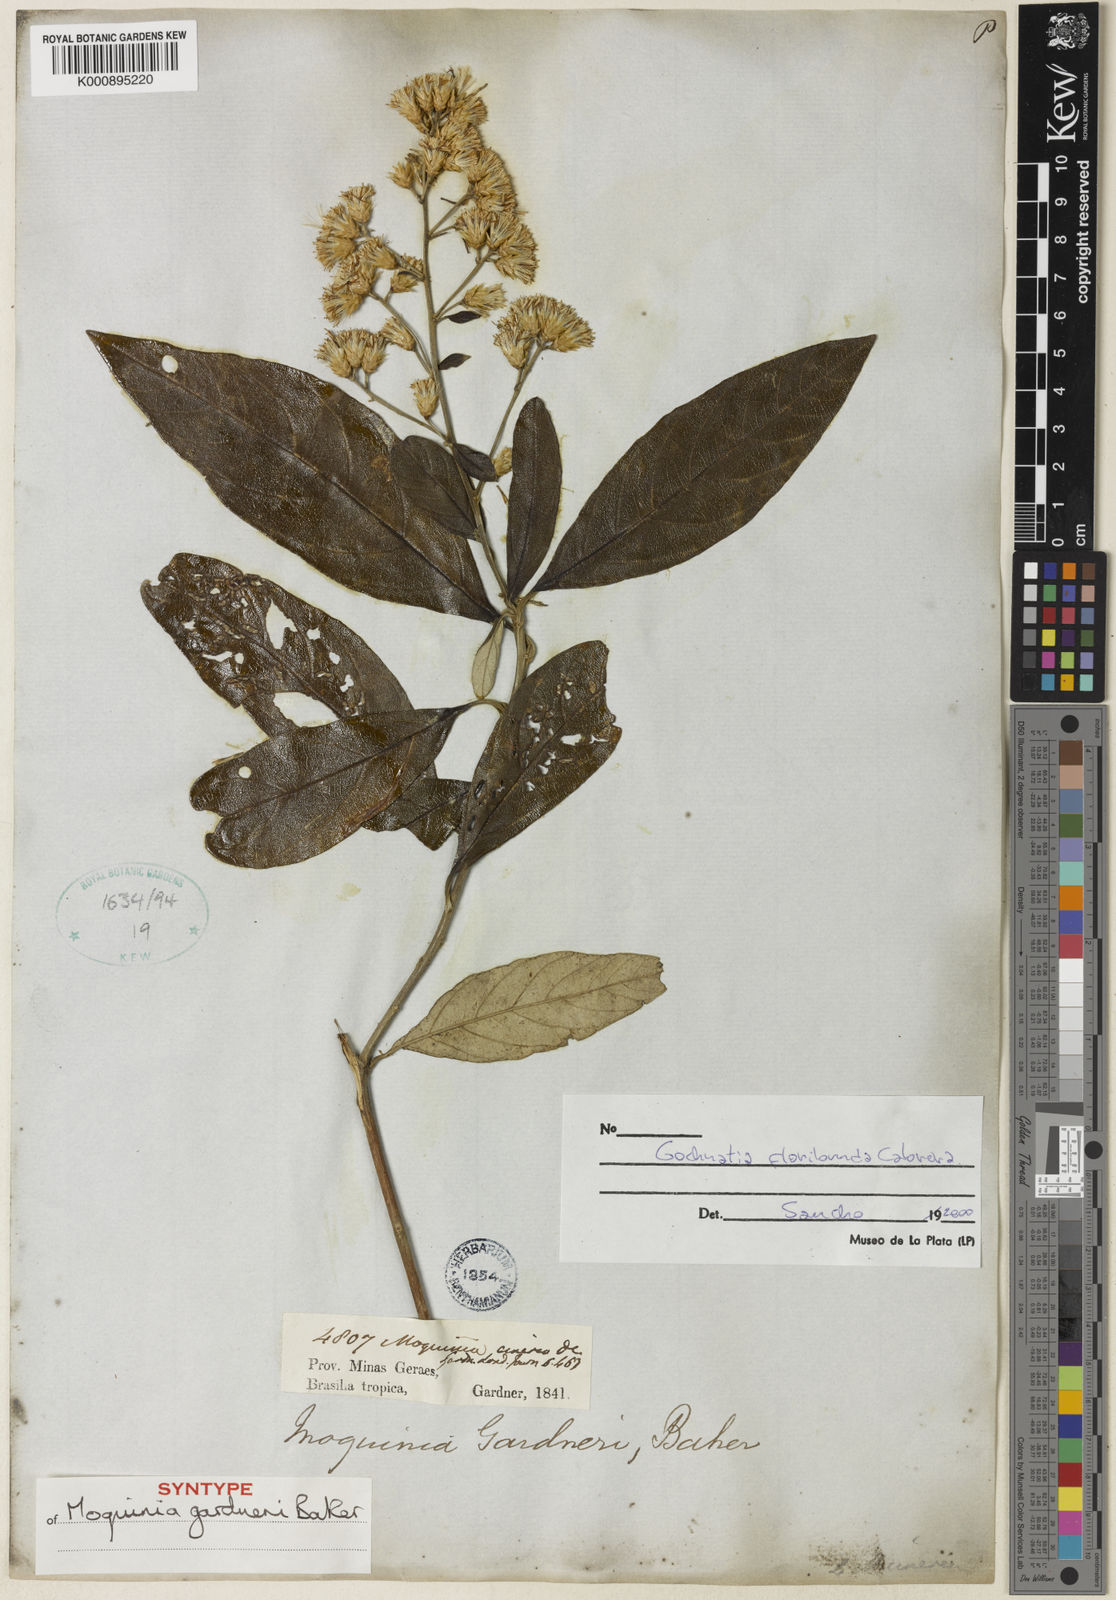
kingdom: Plantae
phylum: Tracheophyta
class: Magnoliopsida
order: Asterales
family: Asteraceae
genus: Moquiniastrum
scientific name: Moquiniastrum floribundum
